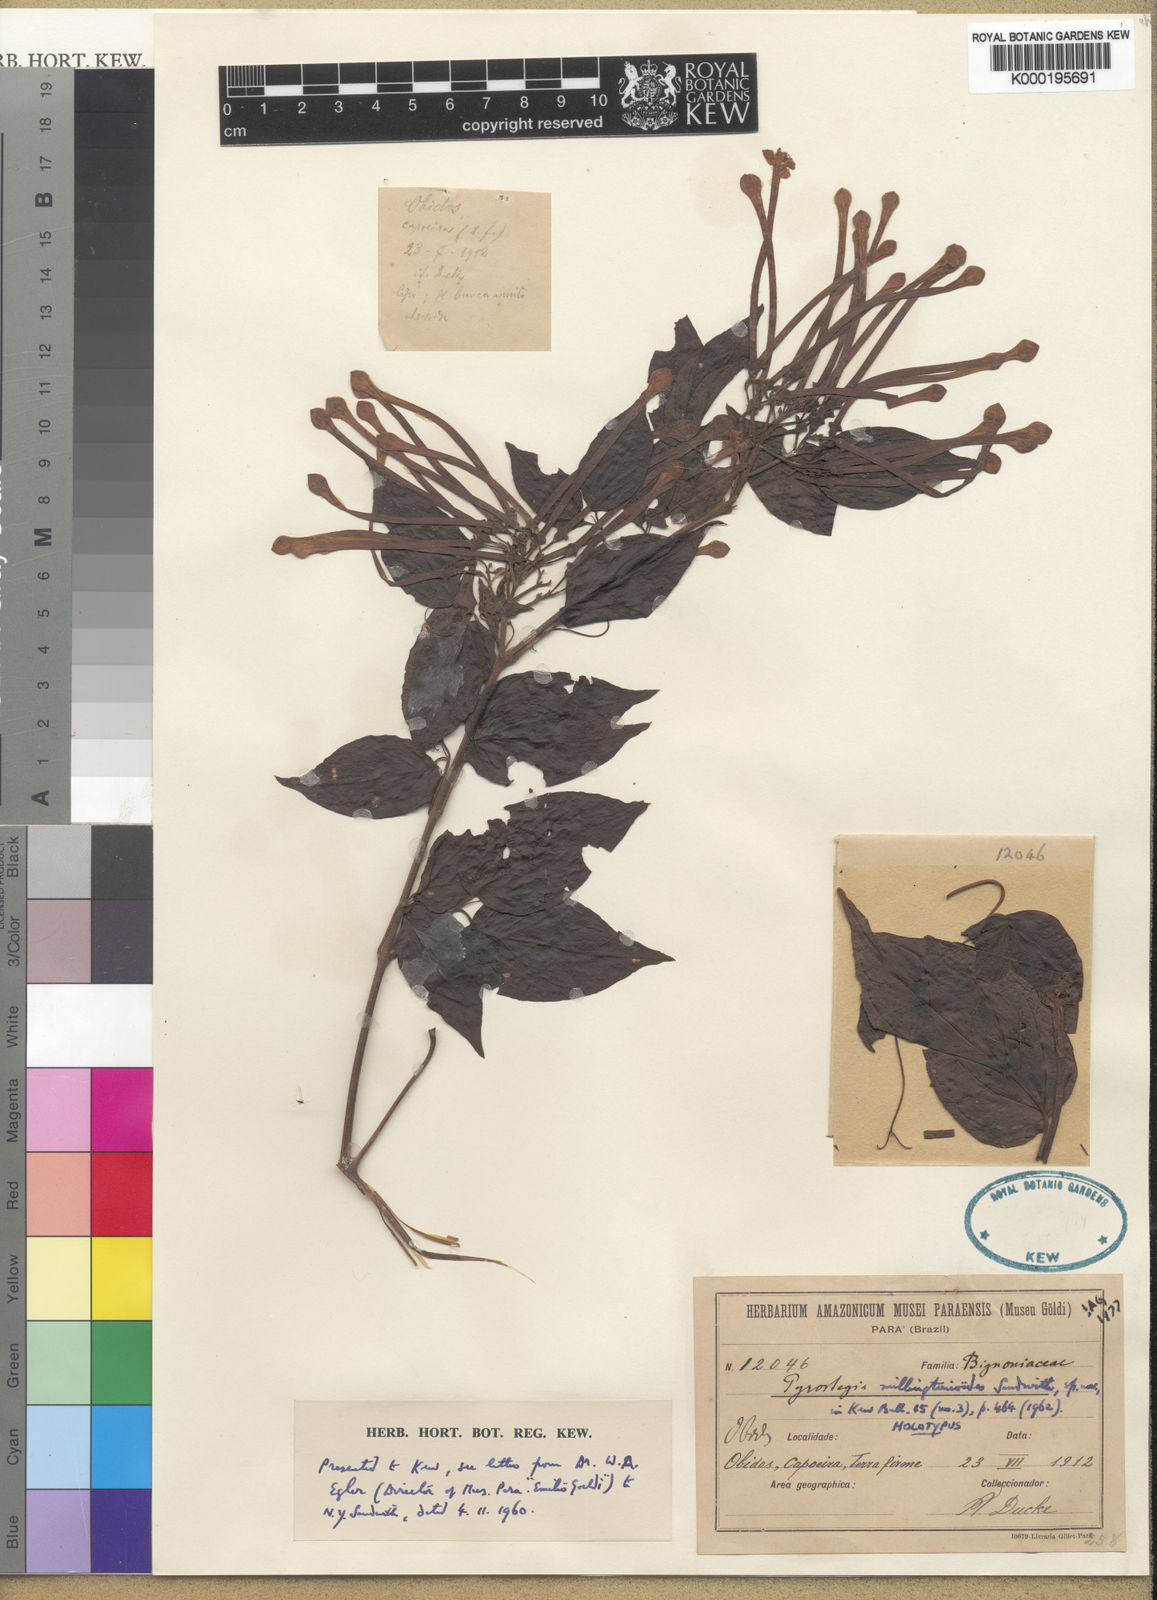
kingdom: Plantae
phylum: Tracheophyta
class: Magnoliopsida
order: Lamiales
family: Bignoniaceae
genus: Pyrostegia
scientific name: Pyrostegia millingtonioides
